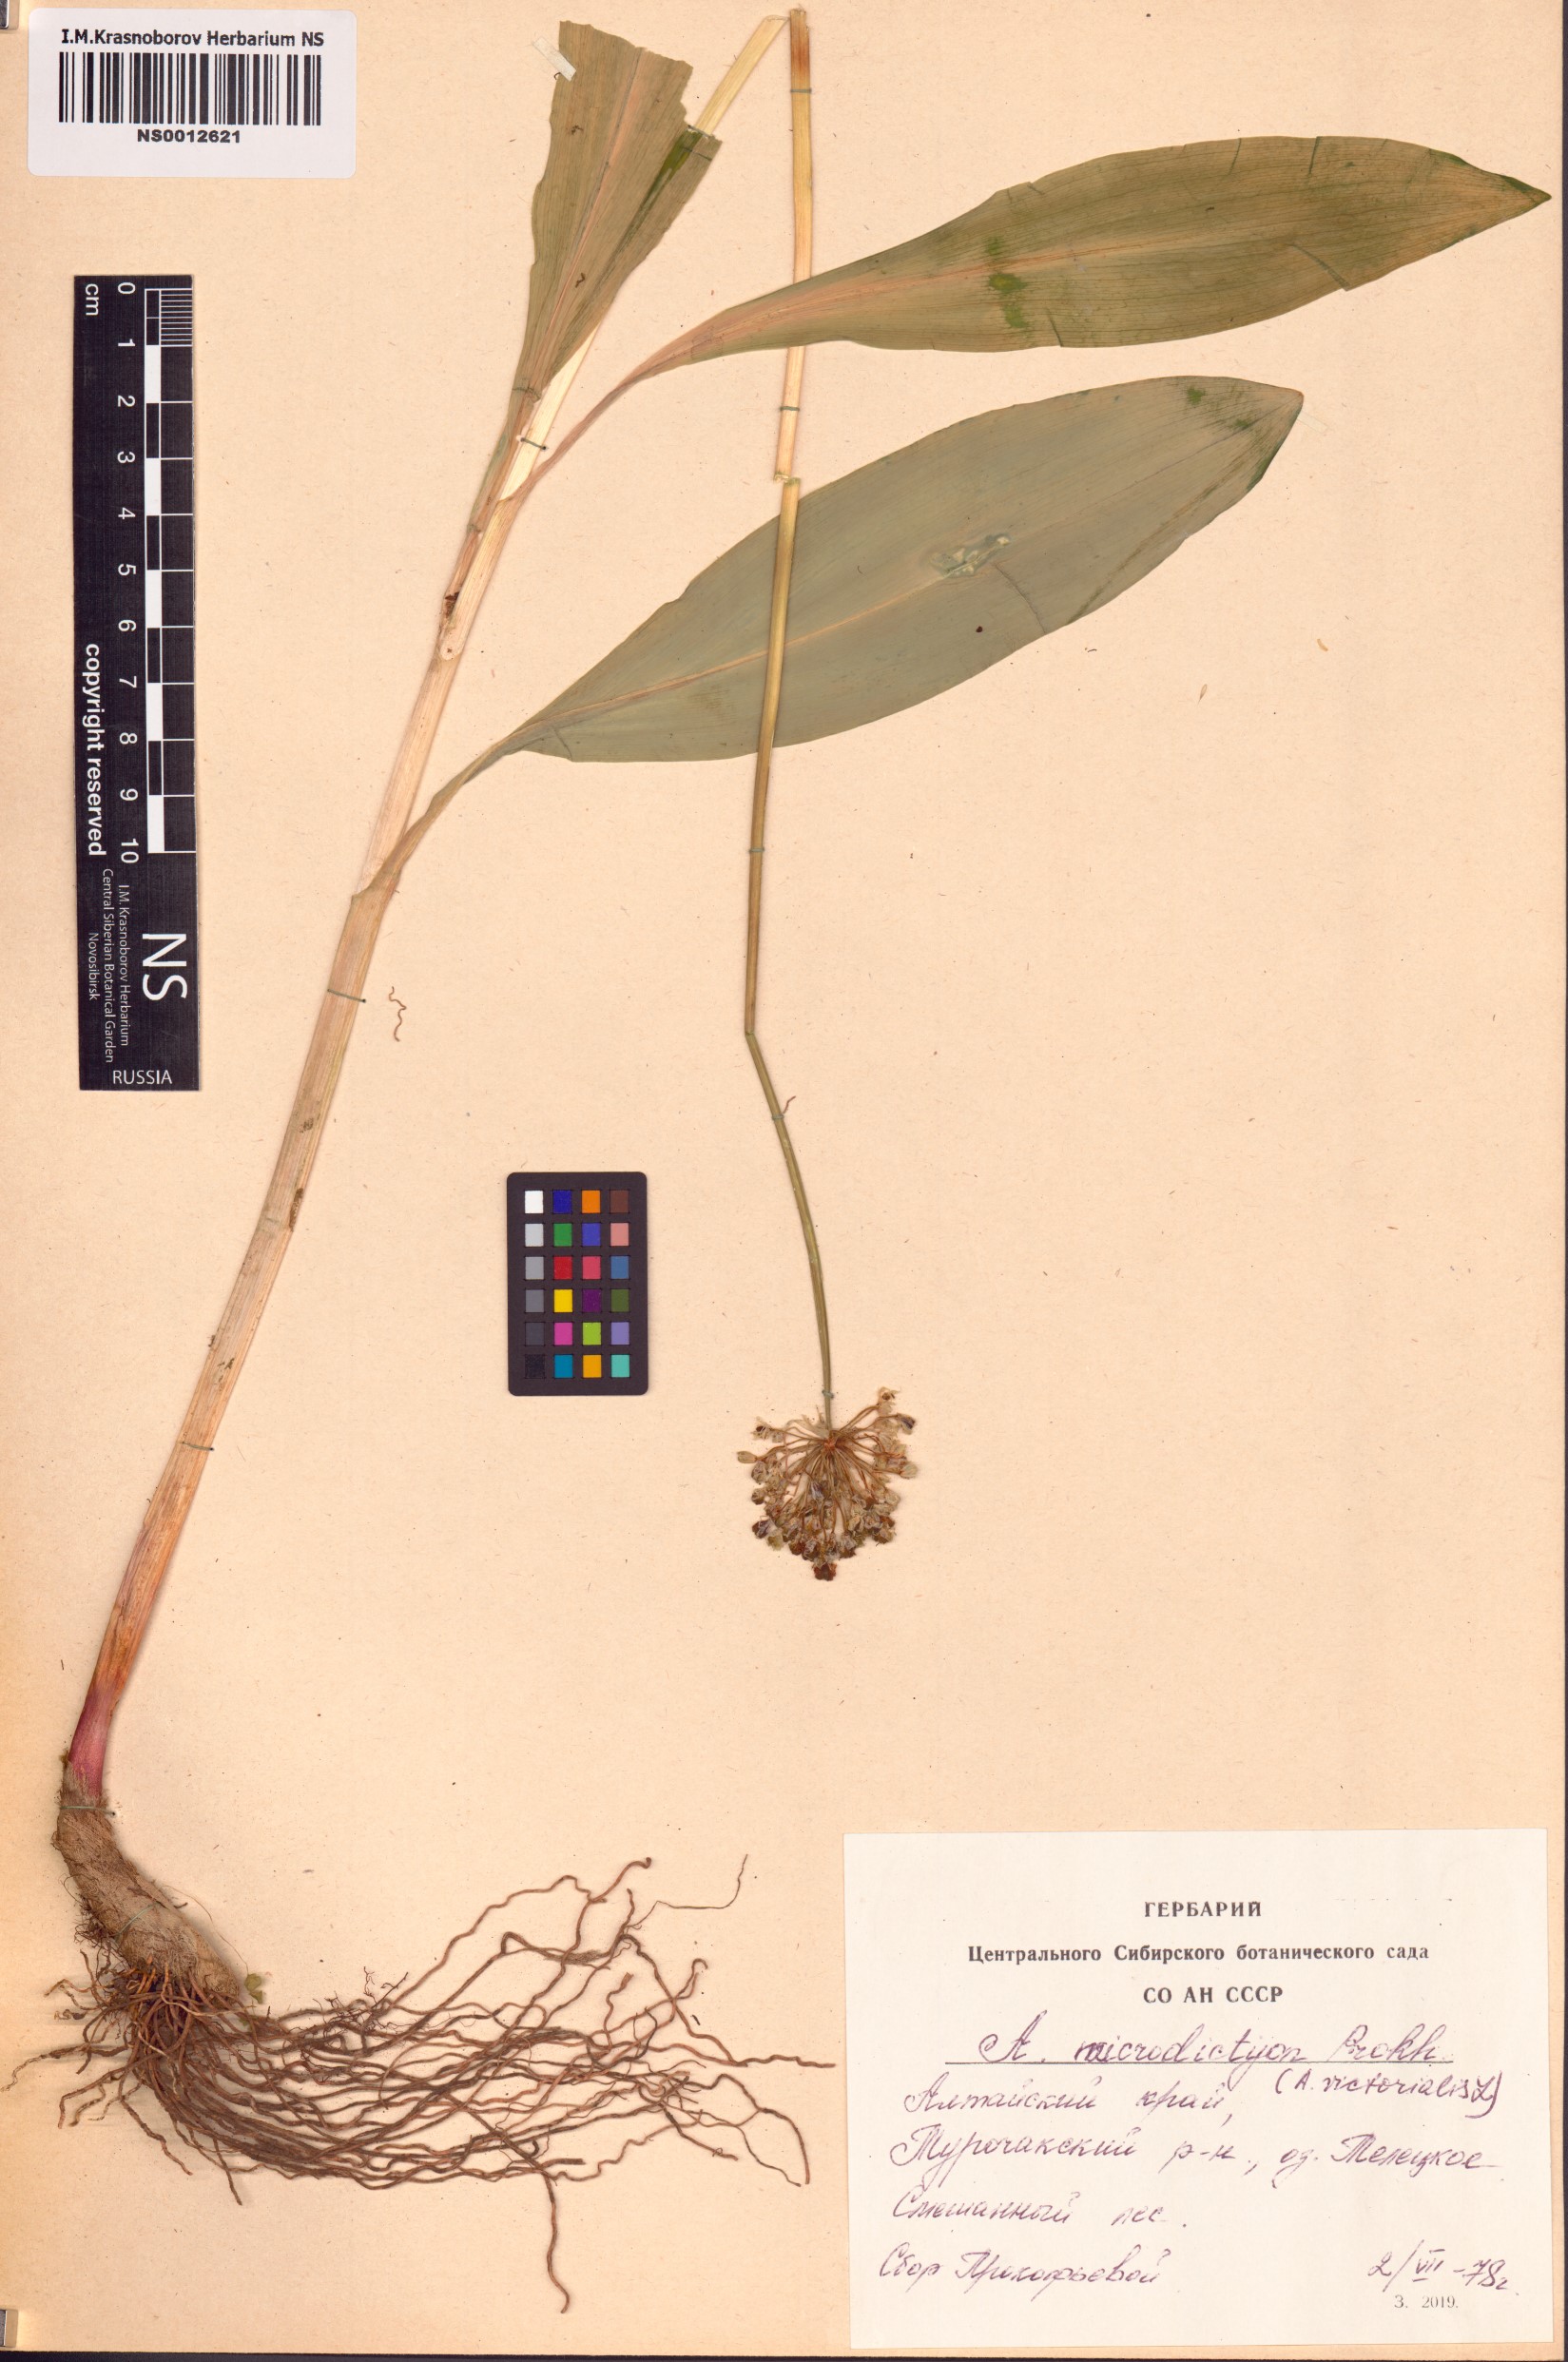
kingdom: Plantae
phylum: Tracheophyta
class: Liliopsida
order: Asparagales
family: Amaryllidaceae
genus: Allium
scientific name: Allium microdictyon
